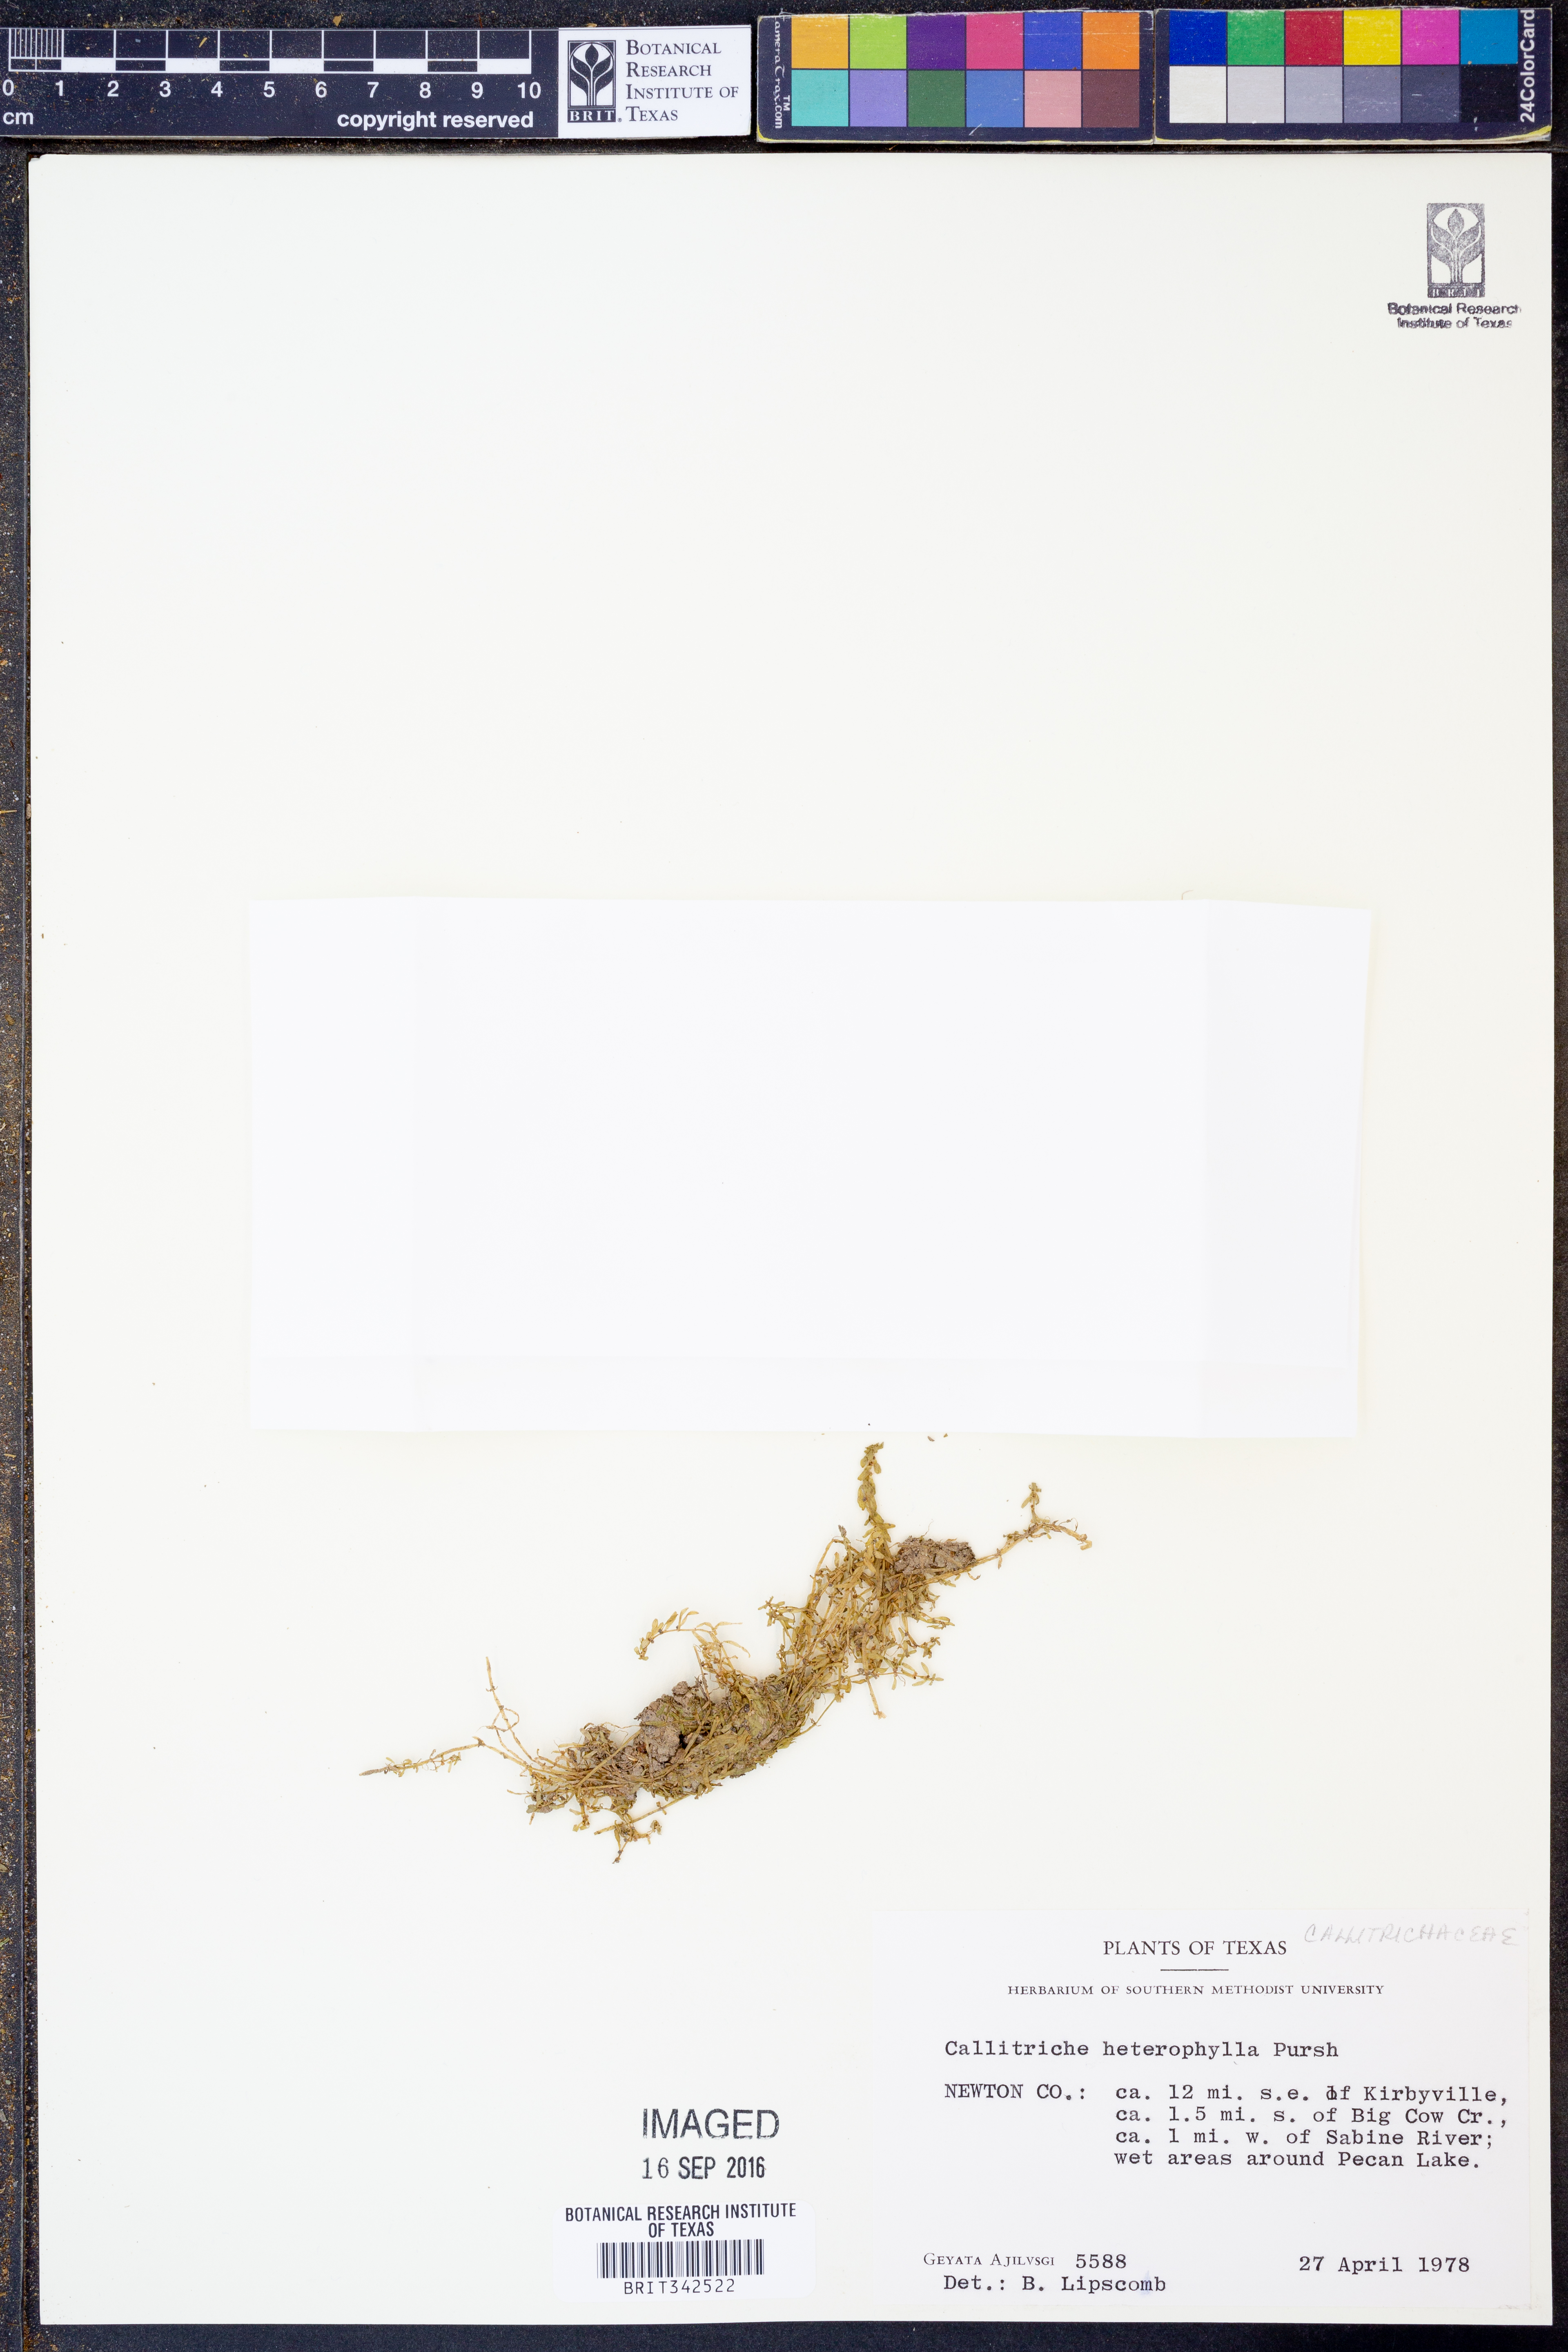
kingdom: Plantae
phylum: Tracheophyta
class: Magnoliopsida
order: Lamiales
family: Plantaginaceae
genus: Callitriche
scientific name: Callitriche heterophylla
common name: Two-headed water-starwort
